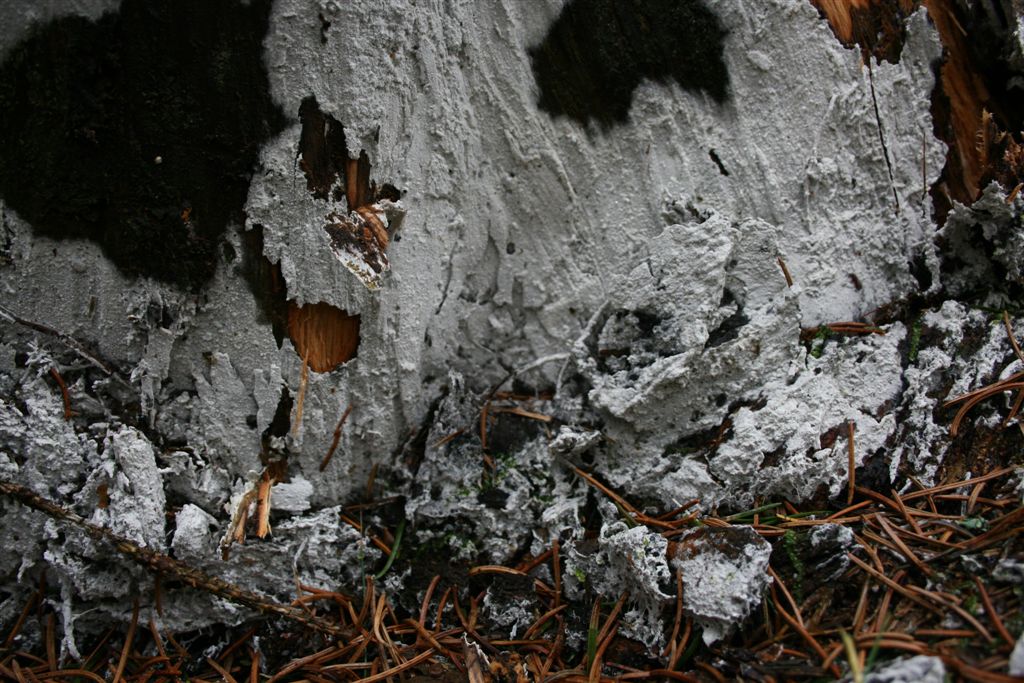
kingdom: Fungi
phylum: Basidiomycota
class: Agaricomycetes
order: Atheliales
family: Atheliaceae
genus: Athelia
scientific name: Athelia neuhoffii
